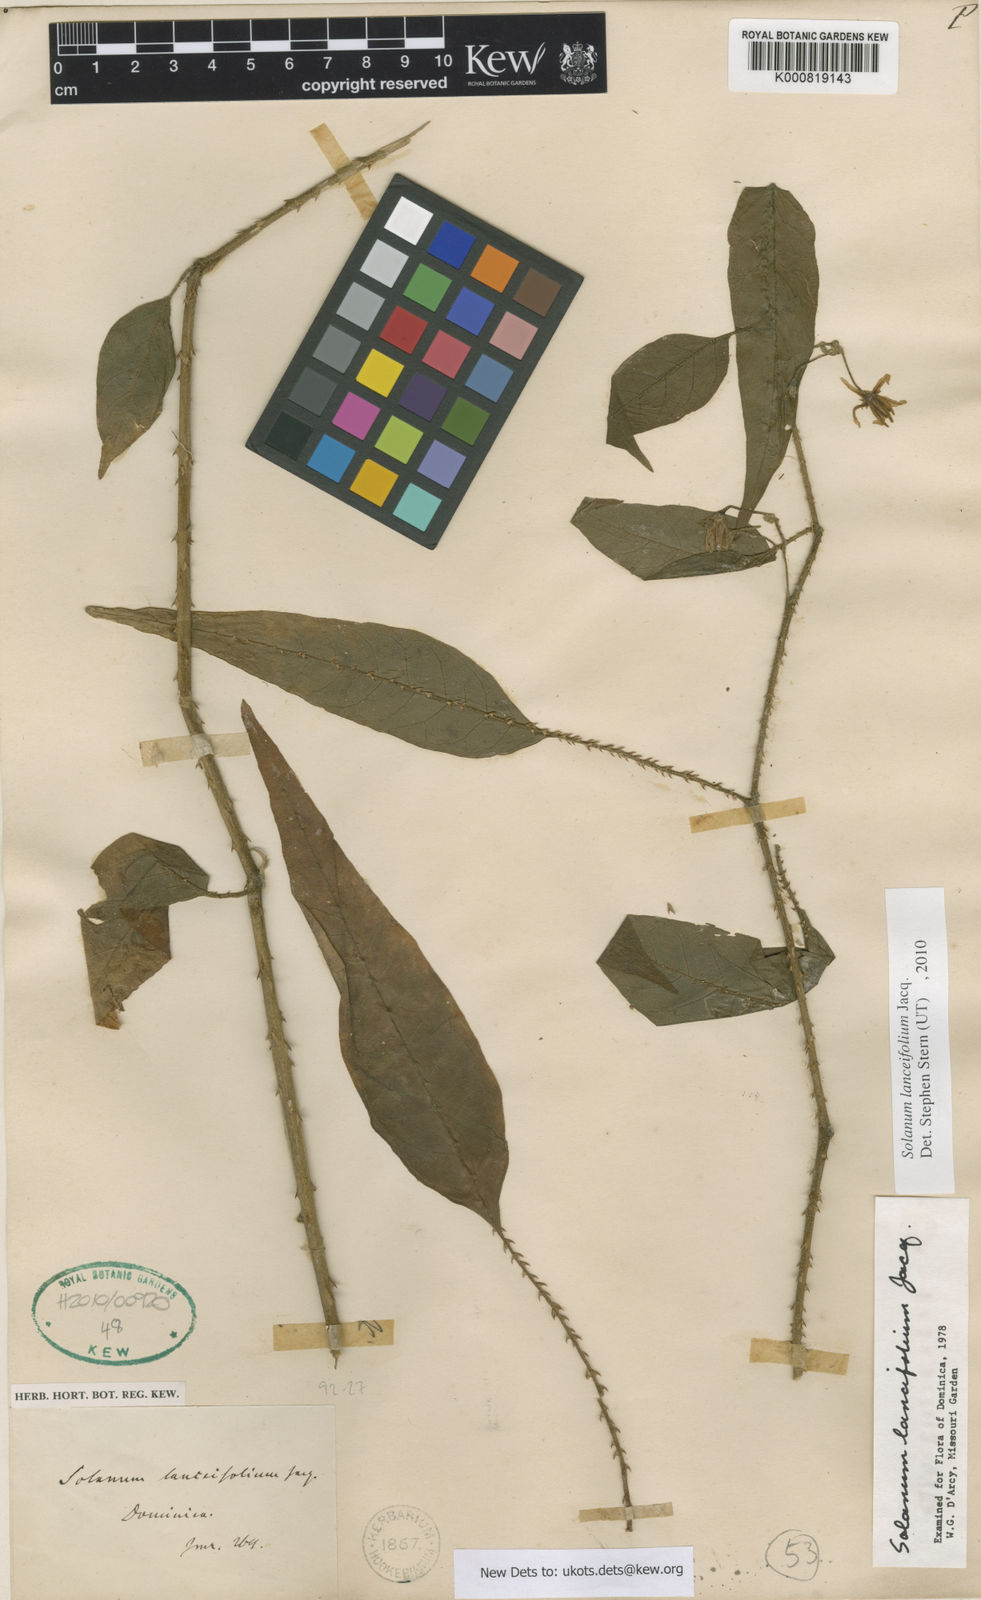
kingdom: Plantae
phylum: Tracheophyta
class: Magnoliopsida
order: Solanales
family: Solanaceae
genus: Solanum
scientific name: Solanum lanceifolium
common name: Lanceleaf nightshade
